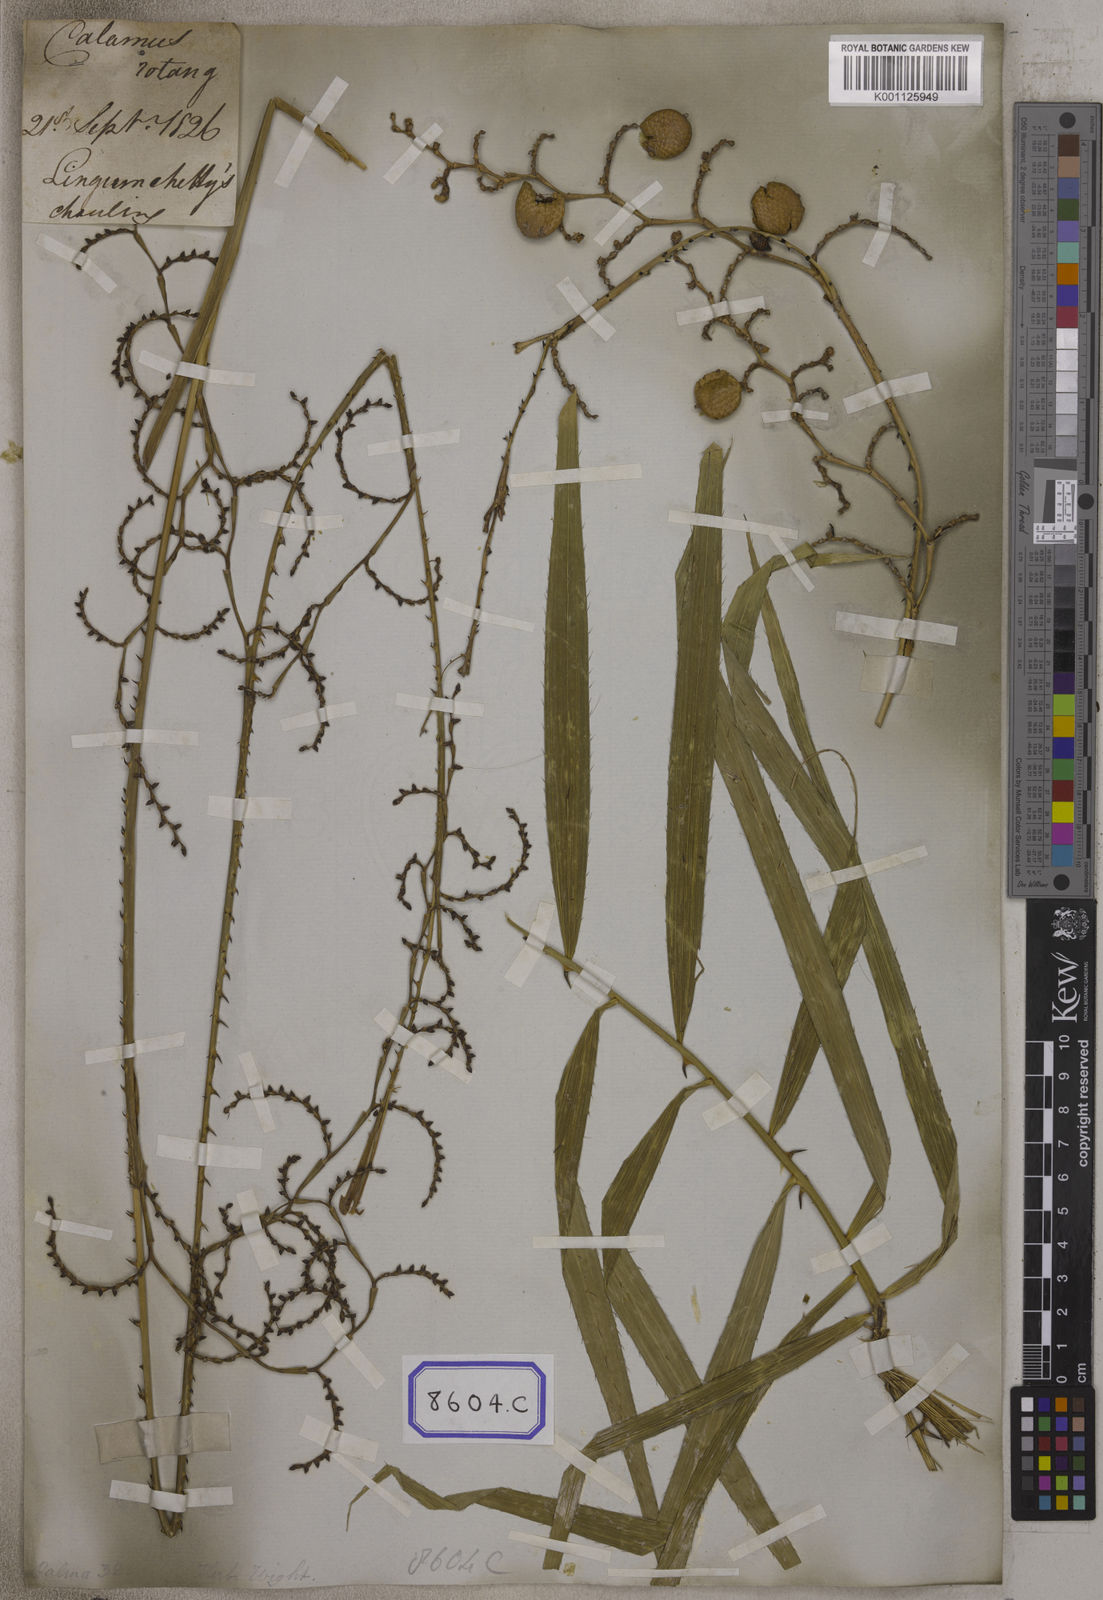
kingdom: Plantae
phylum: Tracheophyta
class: Liliopsida
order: Arecales
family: Arecaceae
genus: Calamus
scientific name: Calamus rotang
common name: Rattan cane
